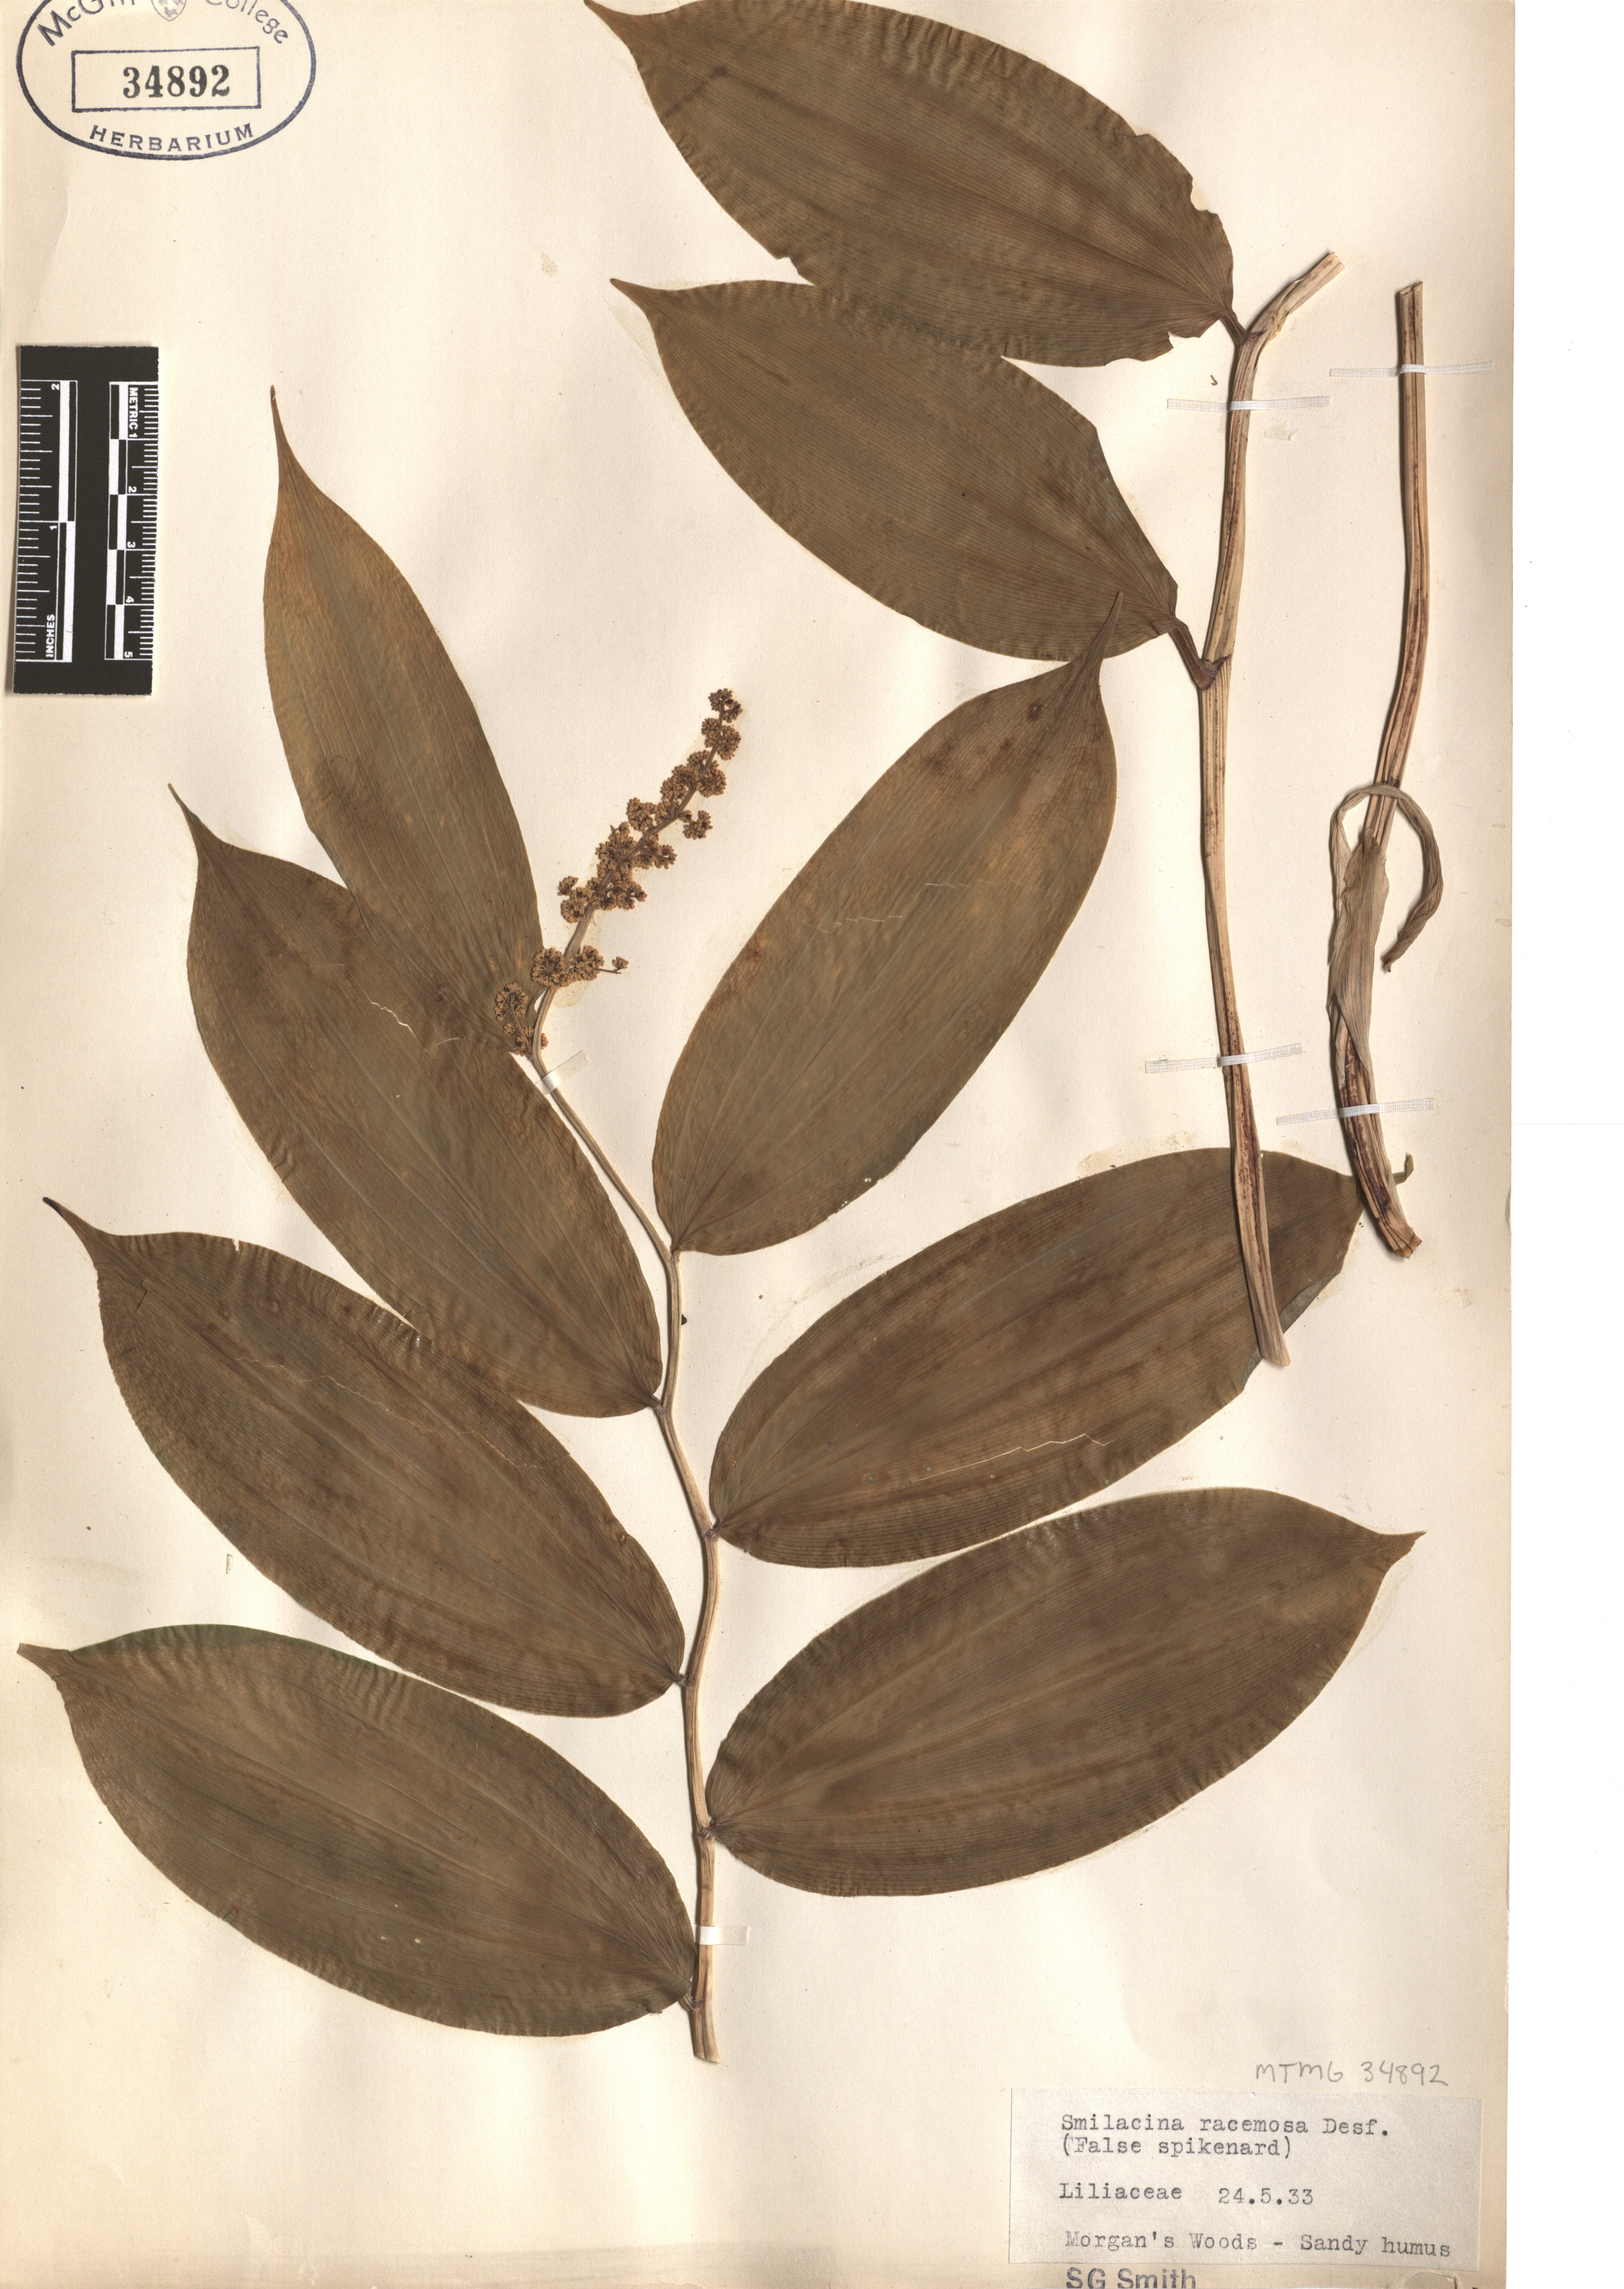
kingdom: Plantae
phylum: Tracheophyta
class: Liliopsida
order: Asparagales
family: Asparagaceae
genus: Maianthemum
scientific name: Maianthemum racemosum
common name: False spikenard
